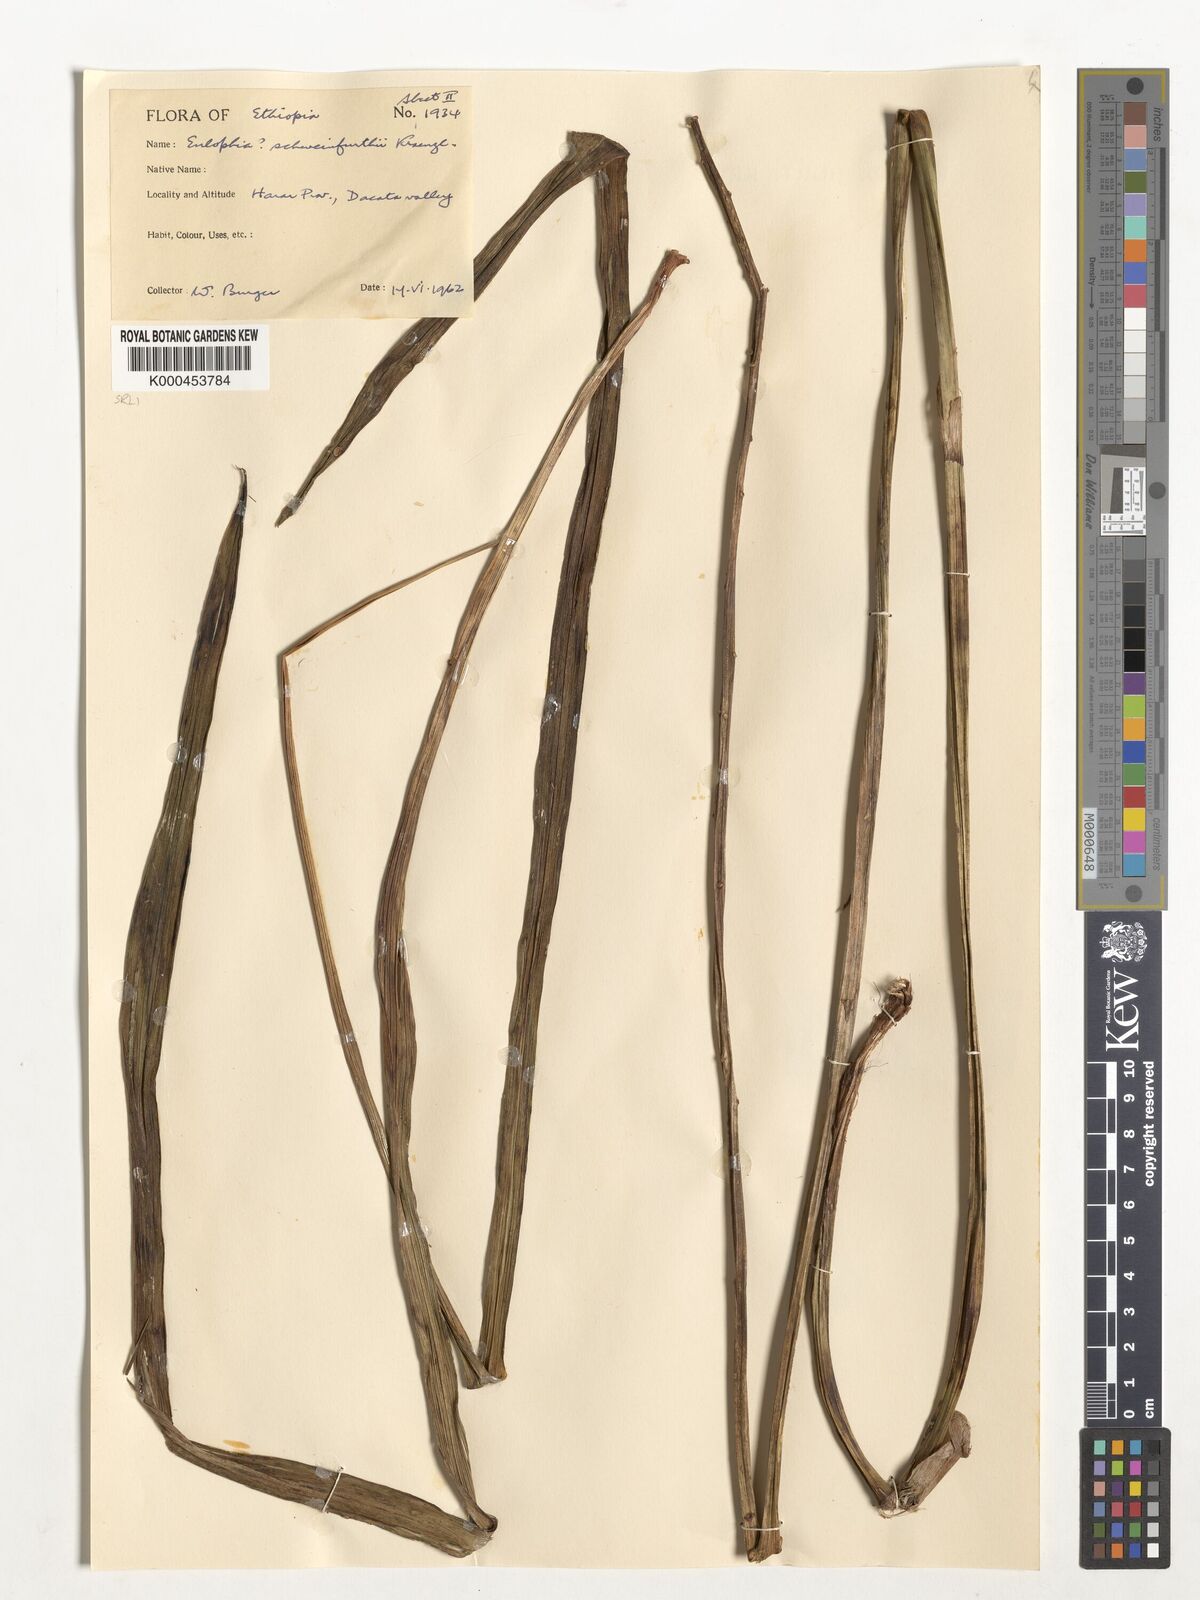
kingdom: Plantae
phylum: Tracheophyta
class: Liliopsida
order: Asparagales
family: Orchidaceae
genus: Eulophia
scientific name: Eulophia speciosa
